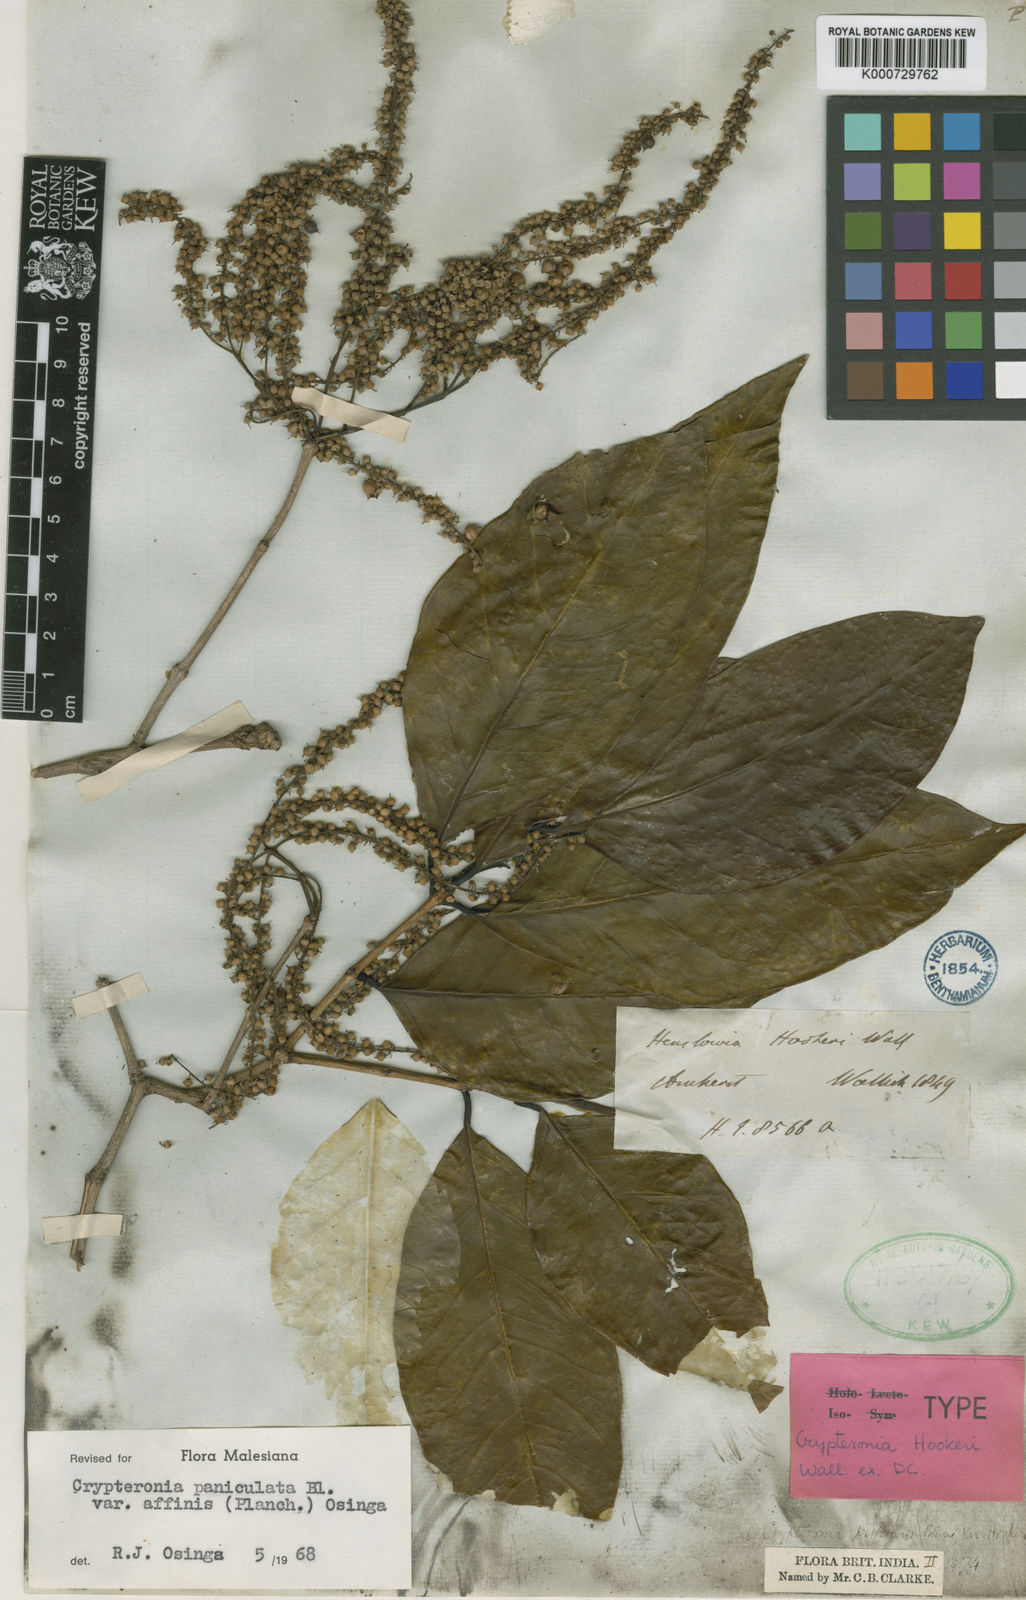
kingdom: Plantae
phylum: Tracheophyta
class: Magnoliopsida
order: Myrtales
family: Crypteroniaceae
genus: Crypteronia
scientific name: Crypteronia paniculata
